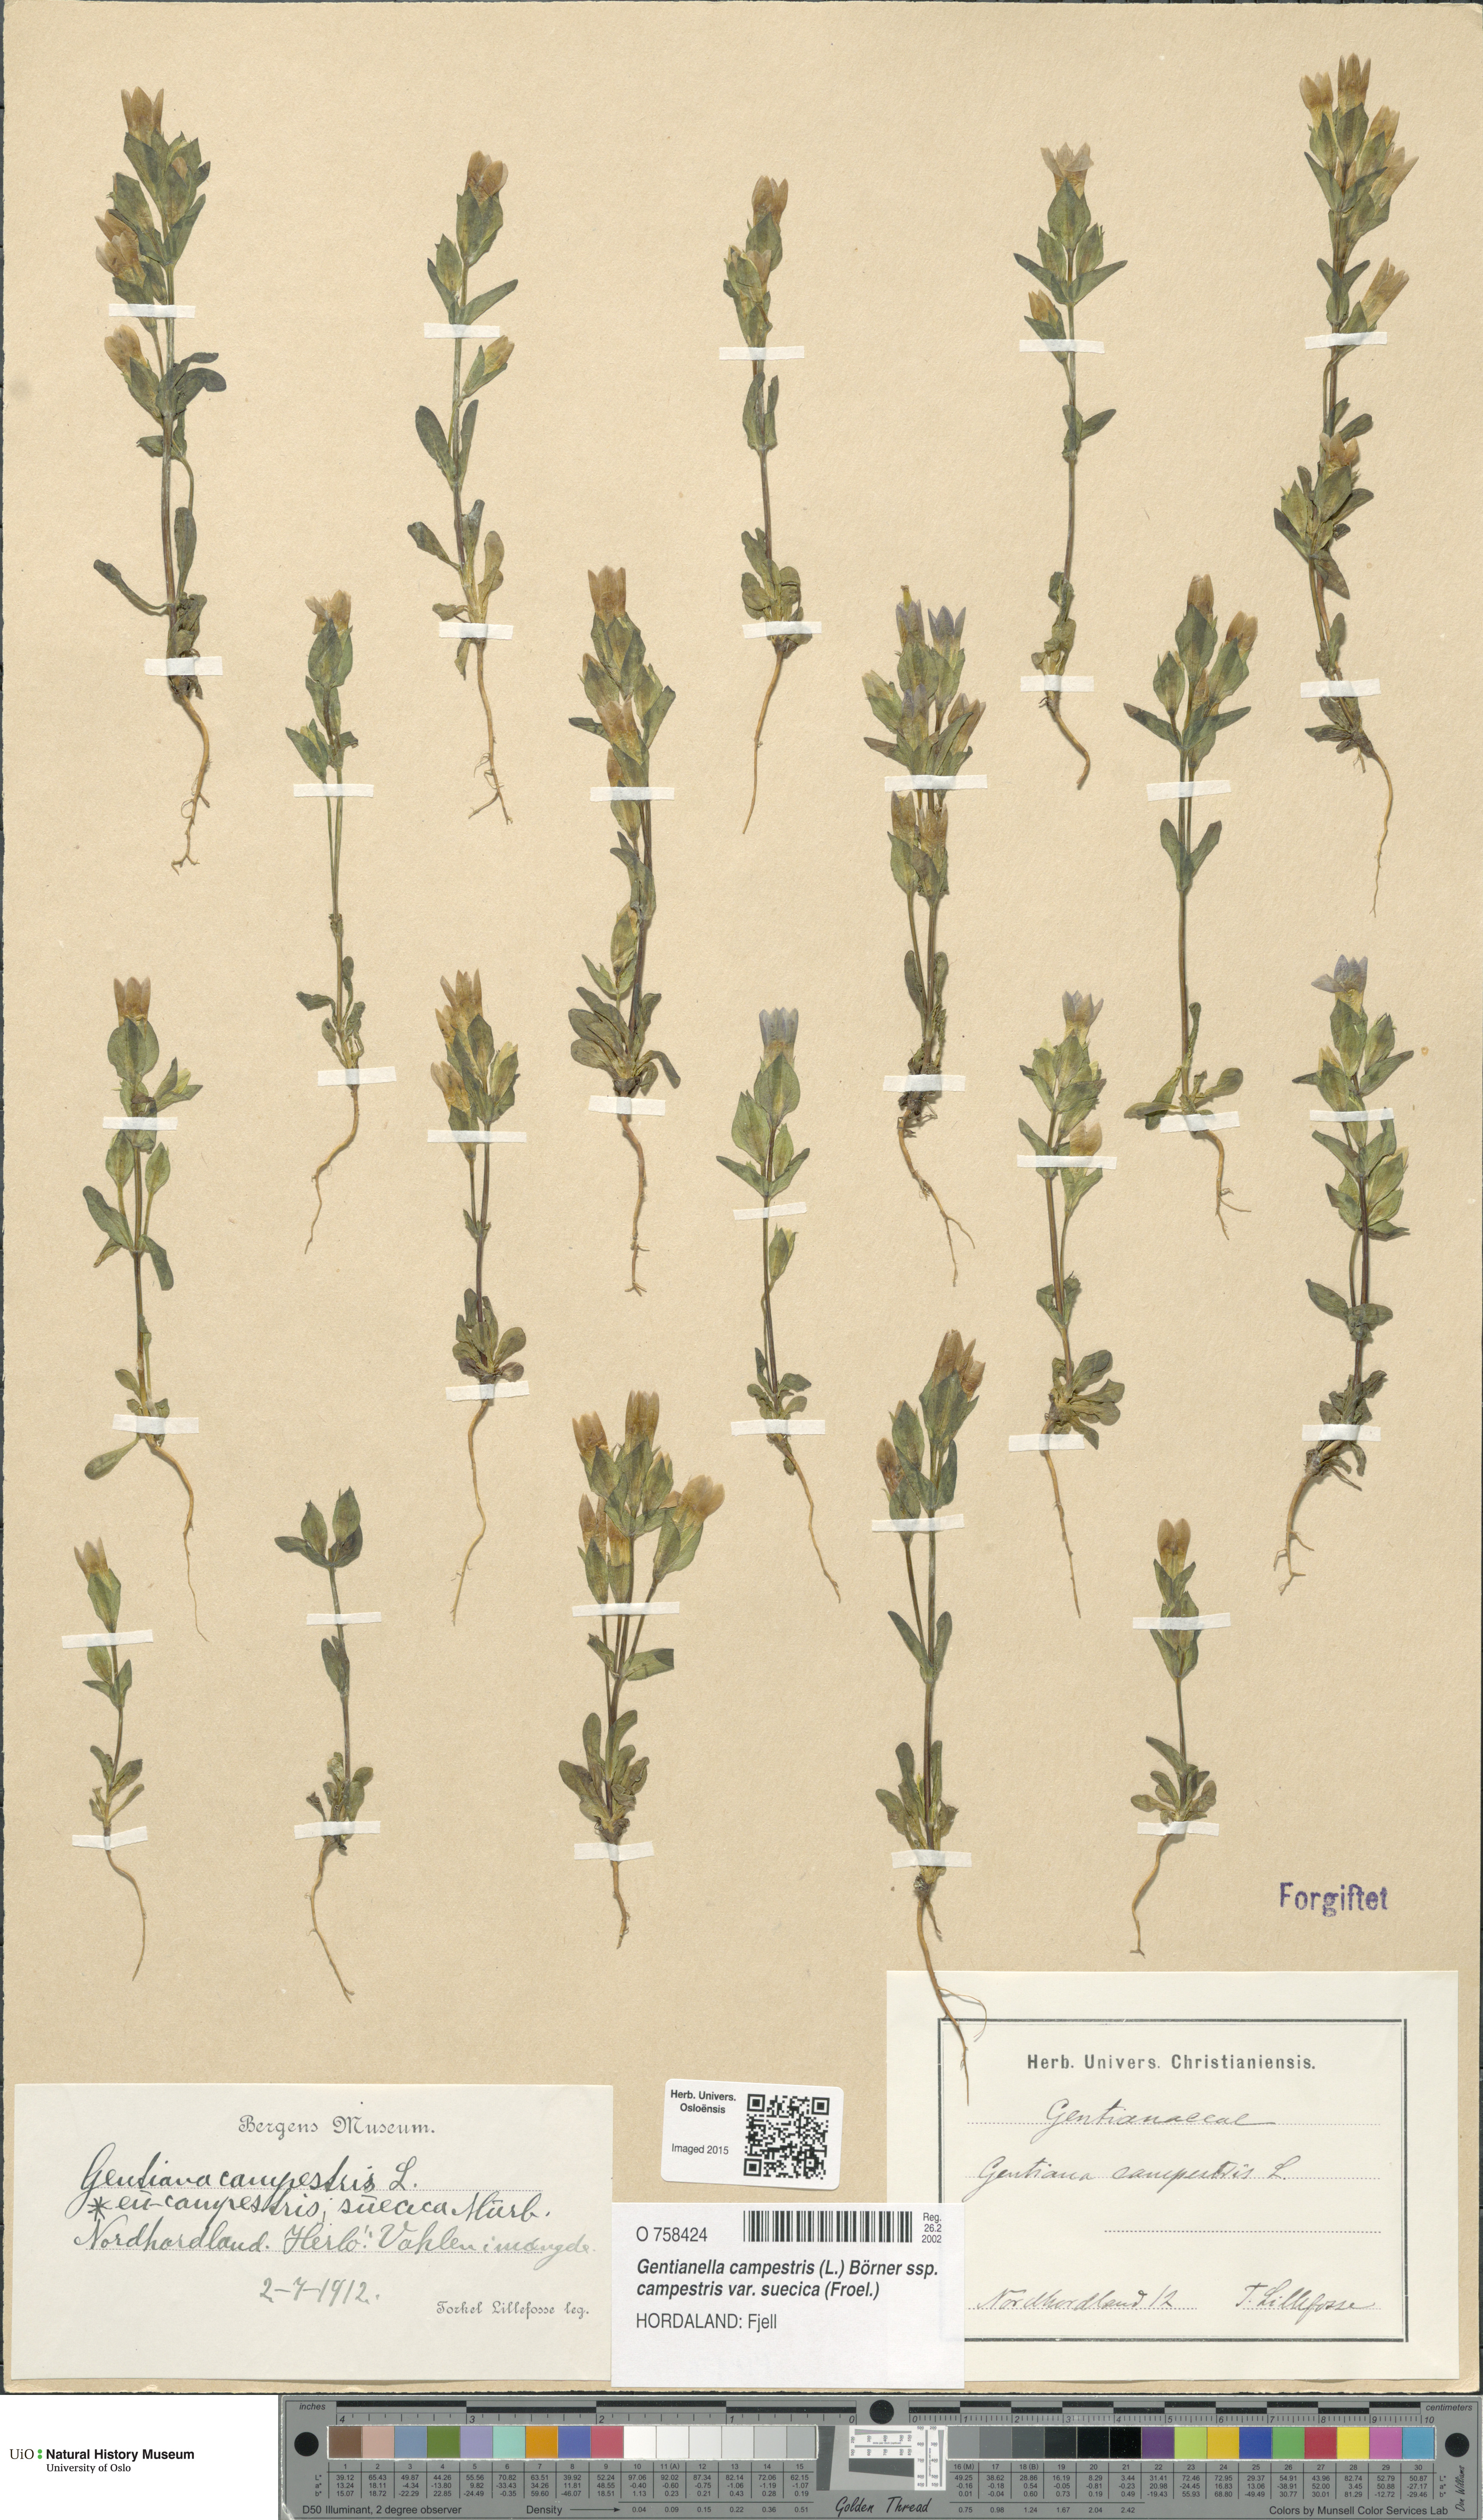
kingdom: Plantae
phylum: Tracheophyta
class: Magnoliopsida
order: Gentianales
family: Gentianaceae
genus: Gentianella
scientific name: Gentianella campestris
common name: Field gentian
